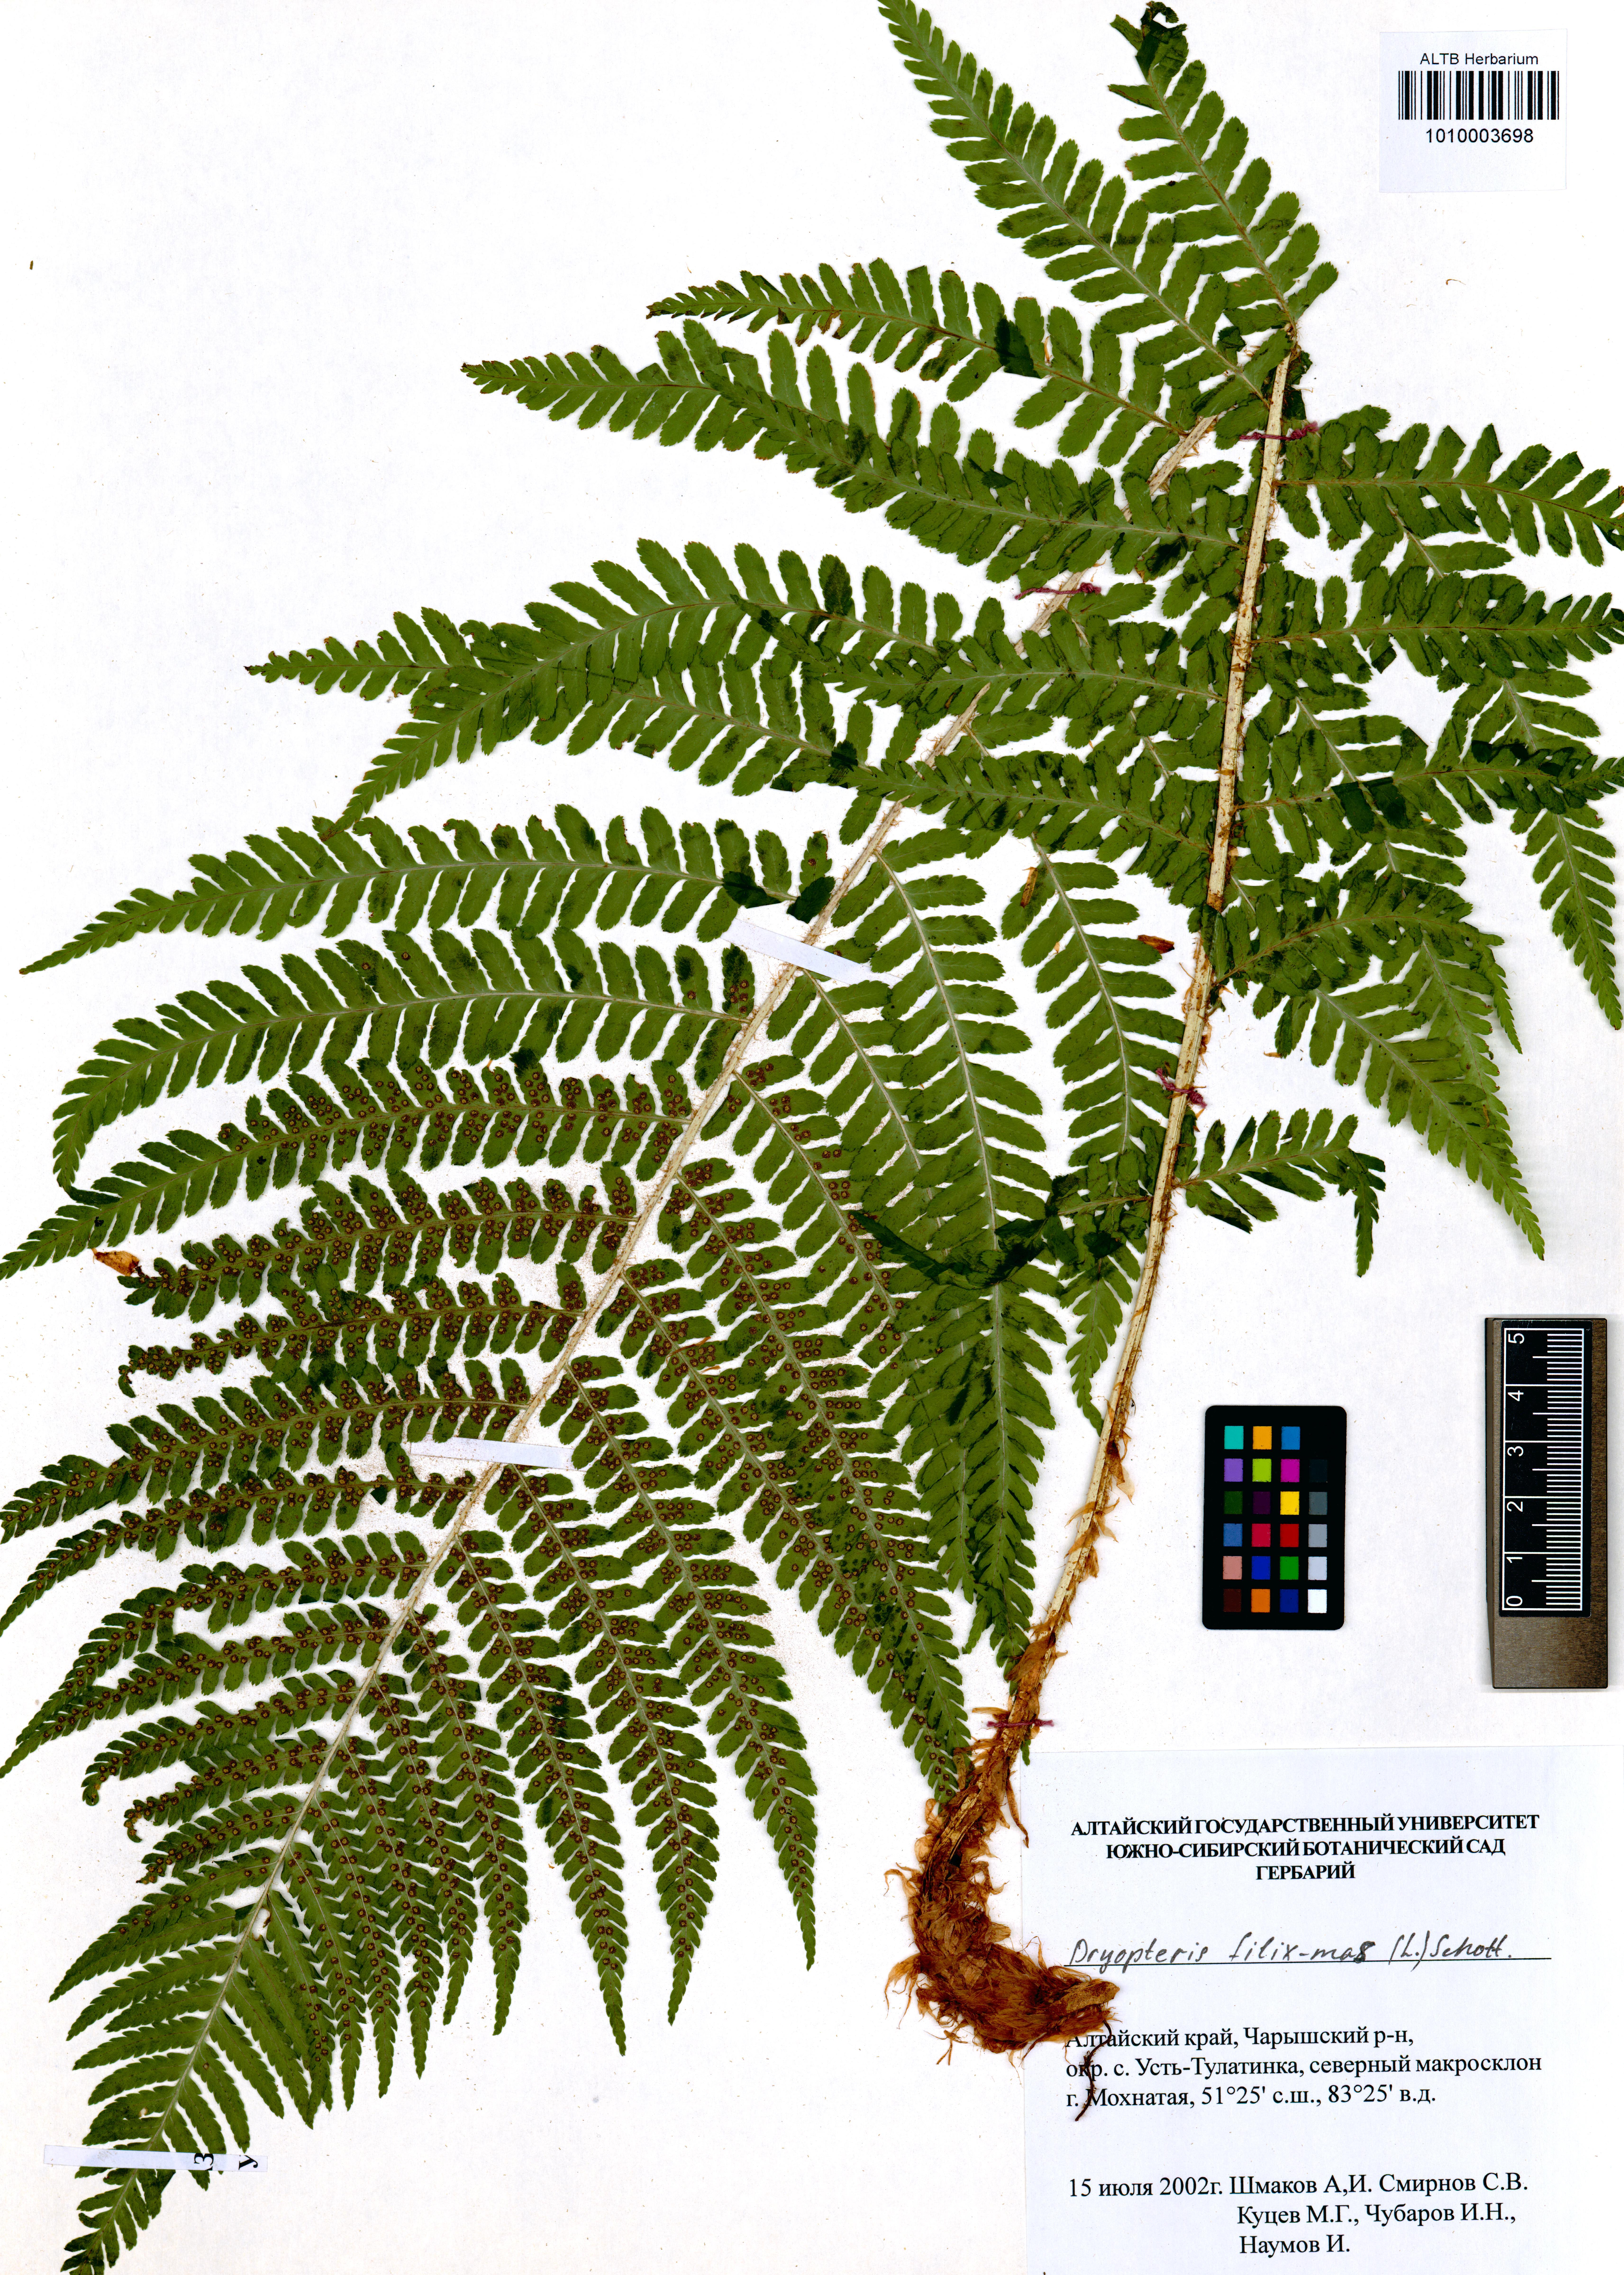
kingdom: Plantae
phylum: Tracheophyta
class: Polypodiopsida
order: Polypodiales
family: Dryopteridaceae
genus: Dryopteris
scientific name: Dryopteris filix-mas
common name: Male fern
